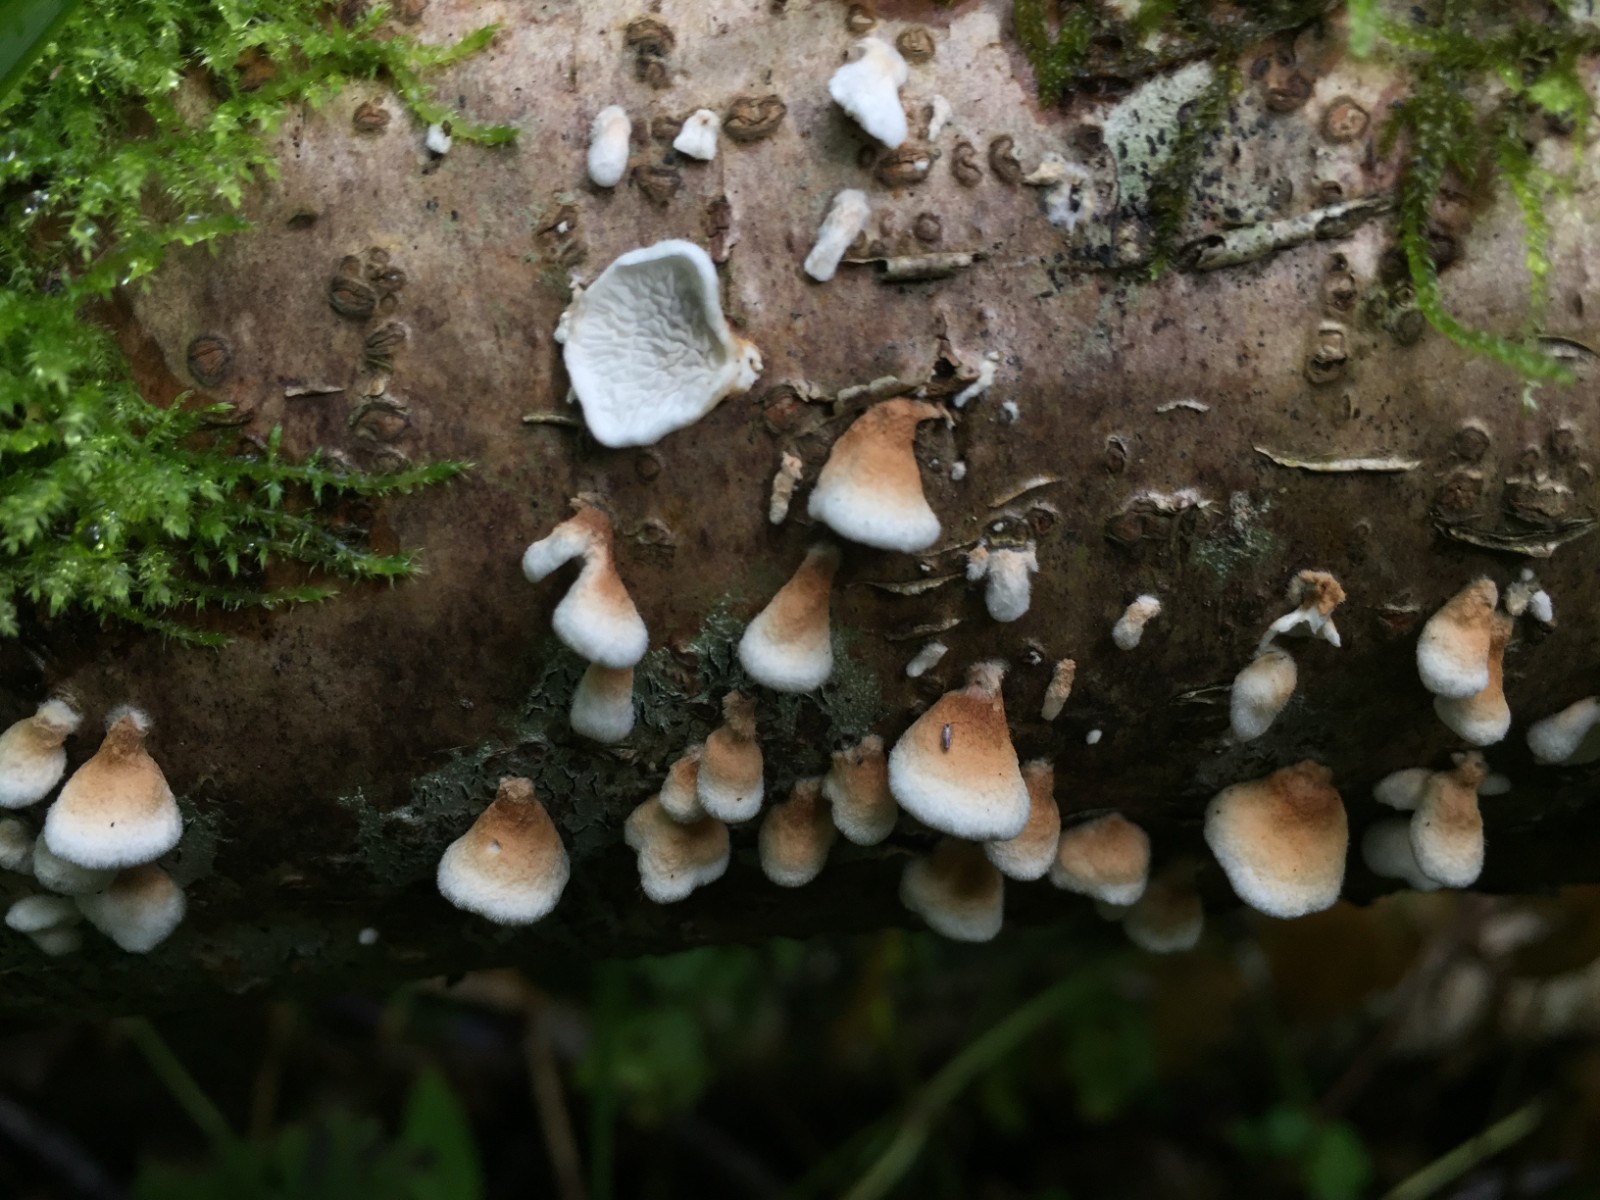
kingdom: Fungi
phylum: Basidiomycota
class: Agaricomycetes
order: Amylocorticiales
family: Amylocorticiaceae
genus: Plicaturopsis
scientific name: Plicaturopsis crispa
